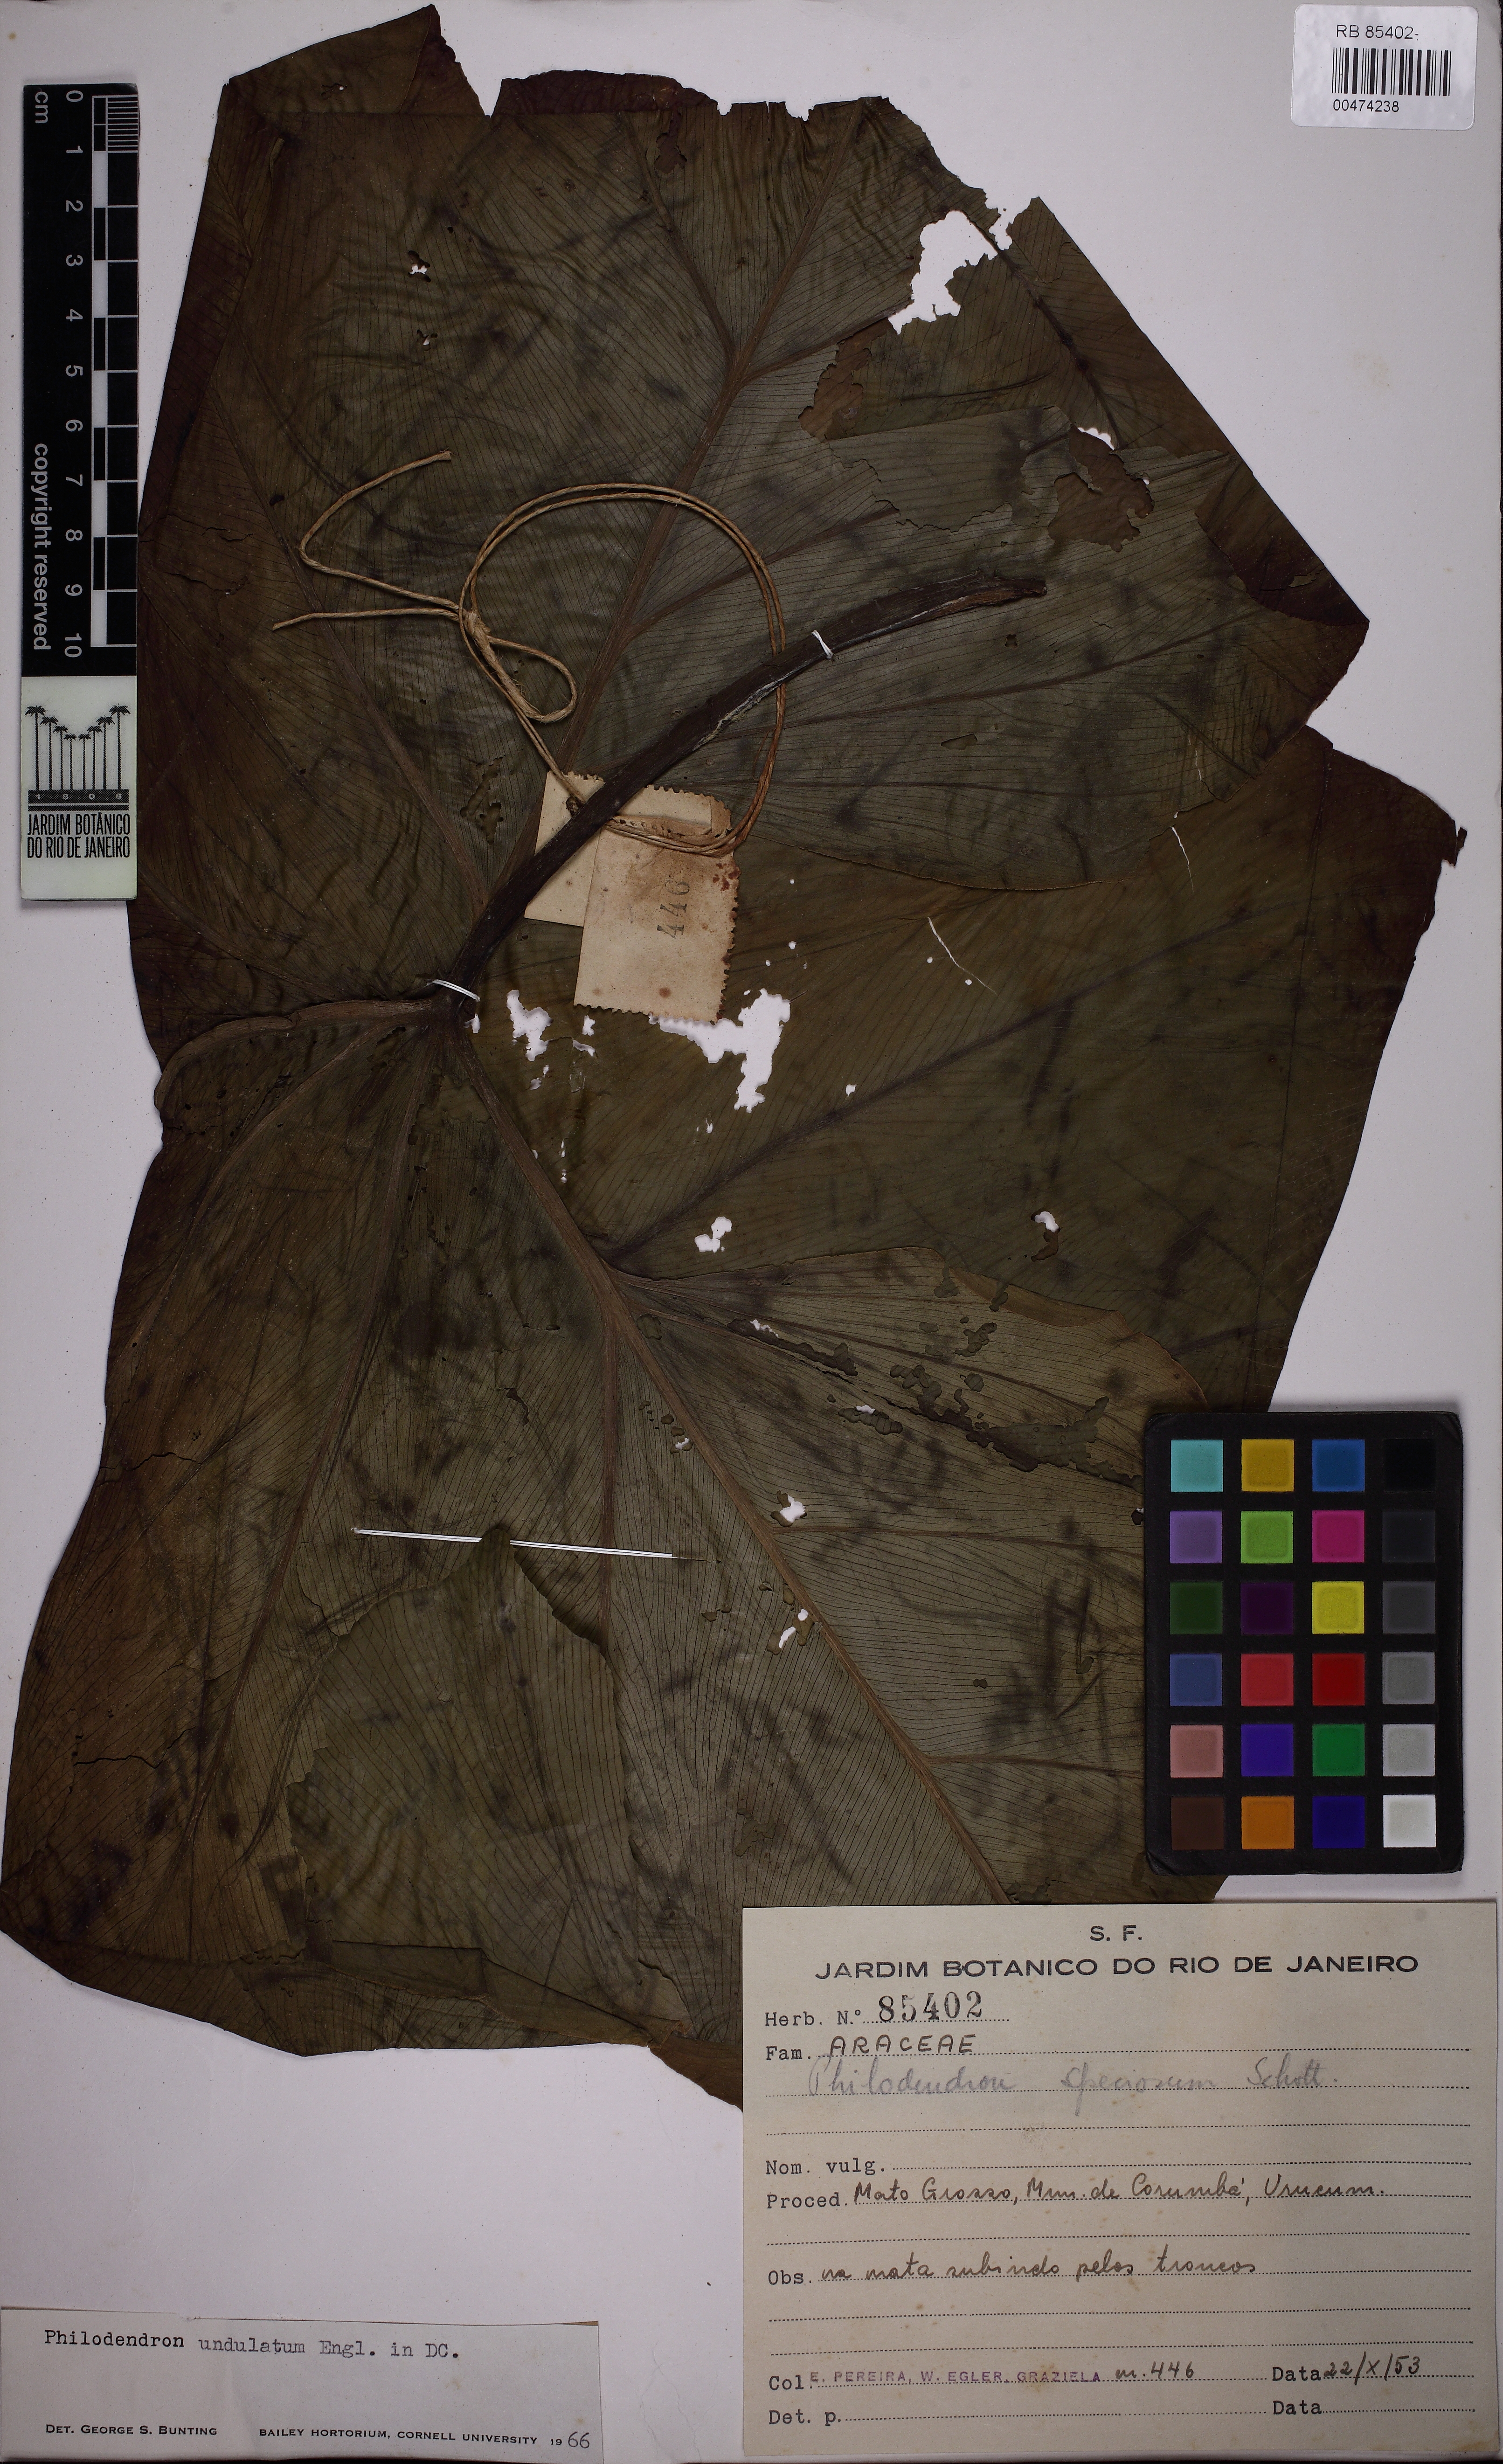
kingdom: Plantae
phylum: Tracheophyta
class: Liliopsida
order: Alismatales
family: Araceae
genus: Thaumatophyllum
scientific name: Thaumatophyllum undulatum
